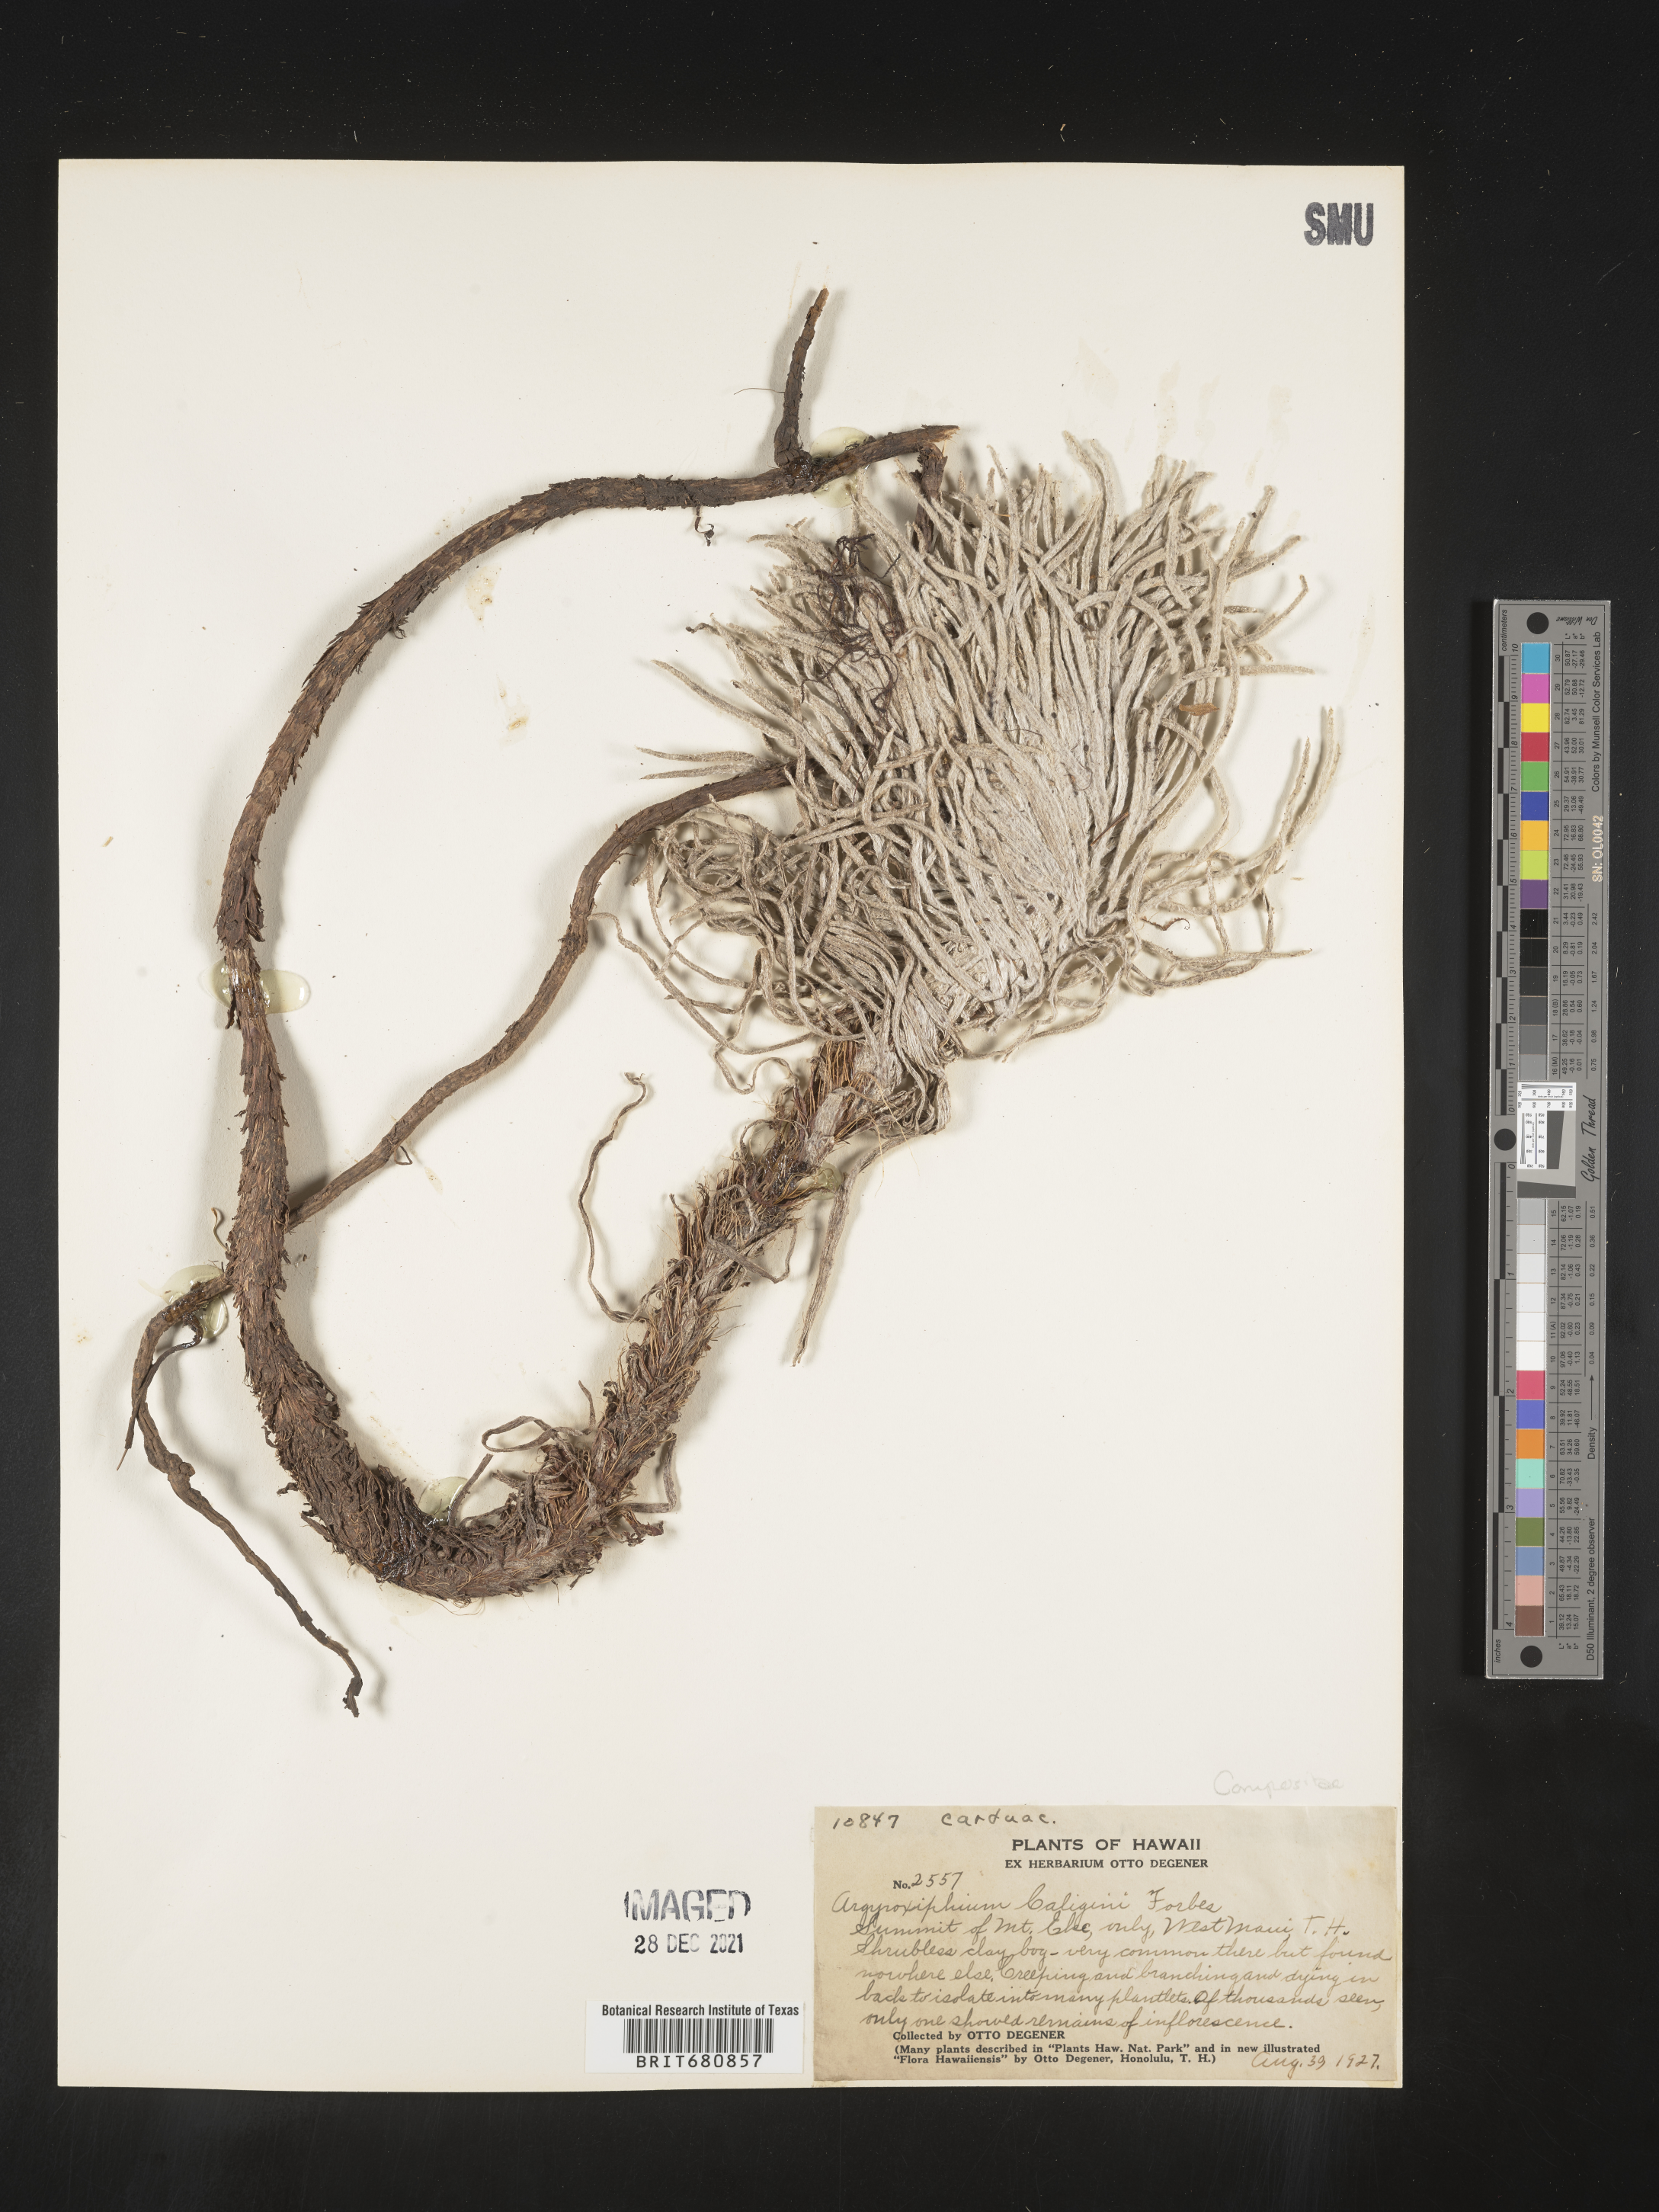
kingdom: Plantae
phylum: Tracheophyta
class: Magnoliopsida
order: Asterales
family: Asteraceae
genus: Argyroxiphium
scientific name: Argyroxiphium
